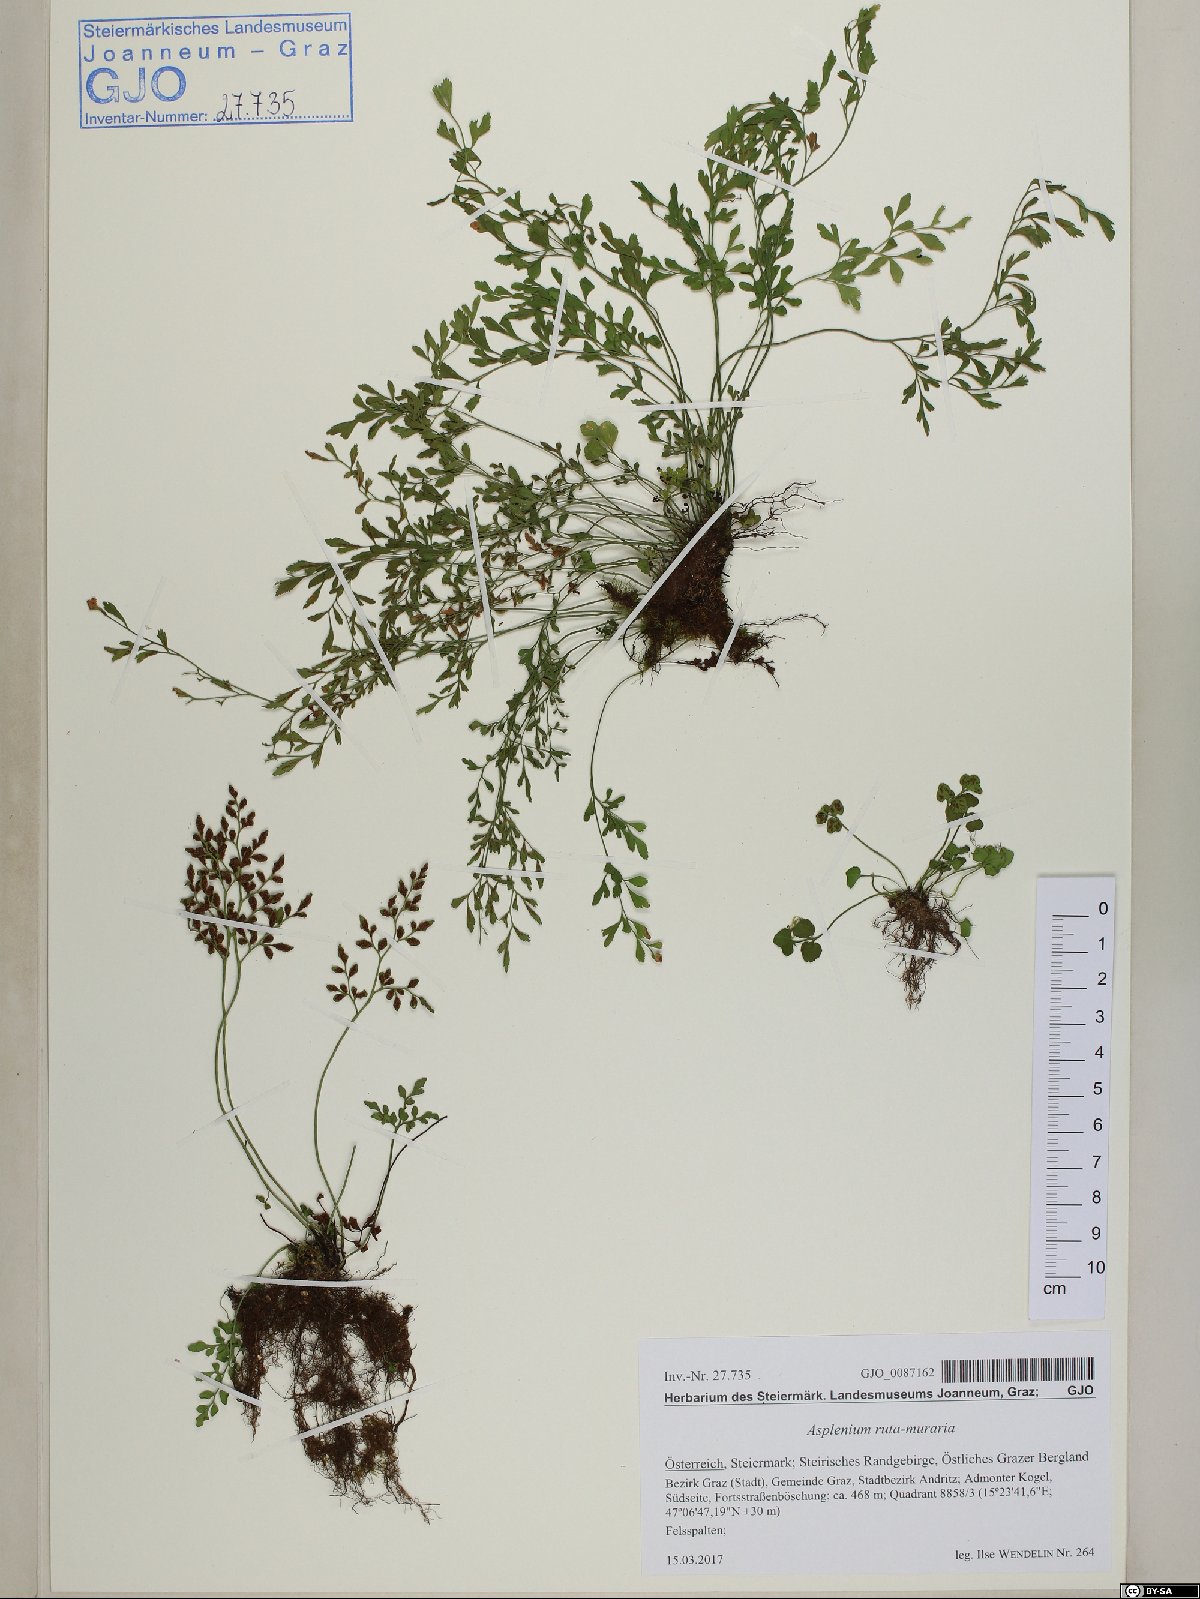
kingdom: Plantae
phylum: Tracheophyta
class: Polypodiopsida
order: Polypodiales
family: Aspleniaceae
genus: Asplenium
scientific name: Asplenium ruta-muraria
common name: Wall-rue
